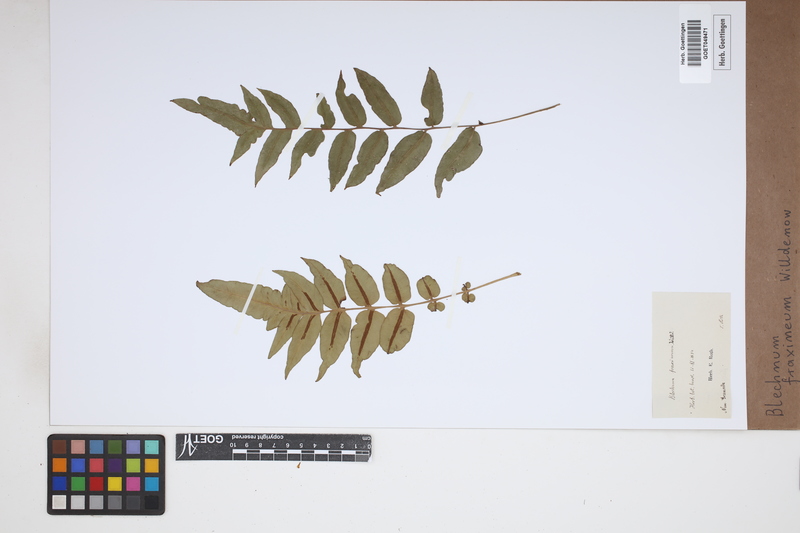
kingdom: Plantae
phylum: Tracheophyta
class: Polypodiopsida
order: Polypodiales
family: Blechnaceae
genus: Blechnum
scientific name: Blechnum gracile
